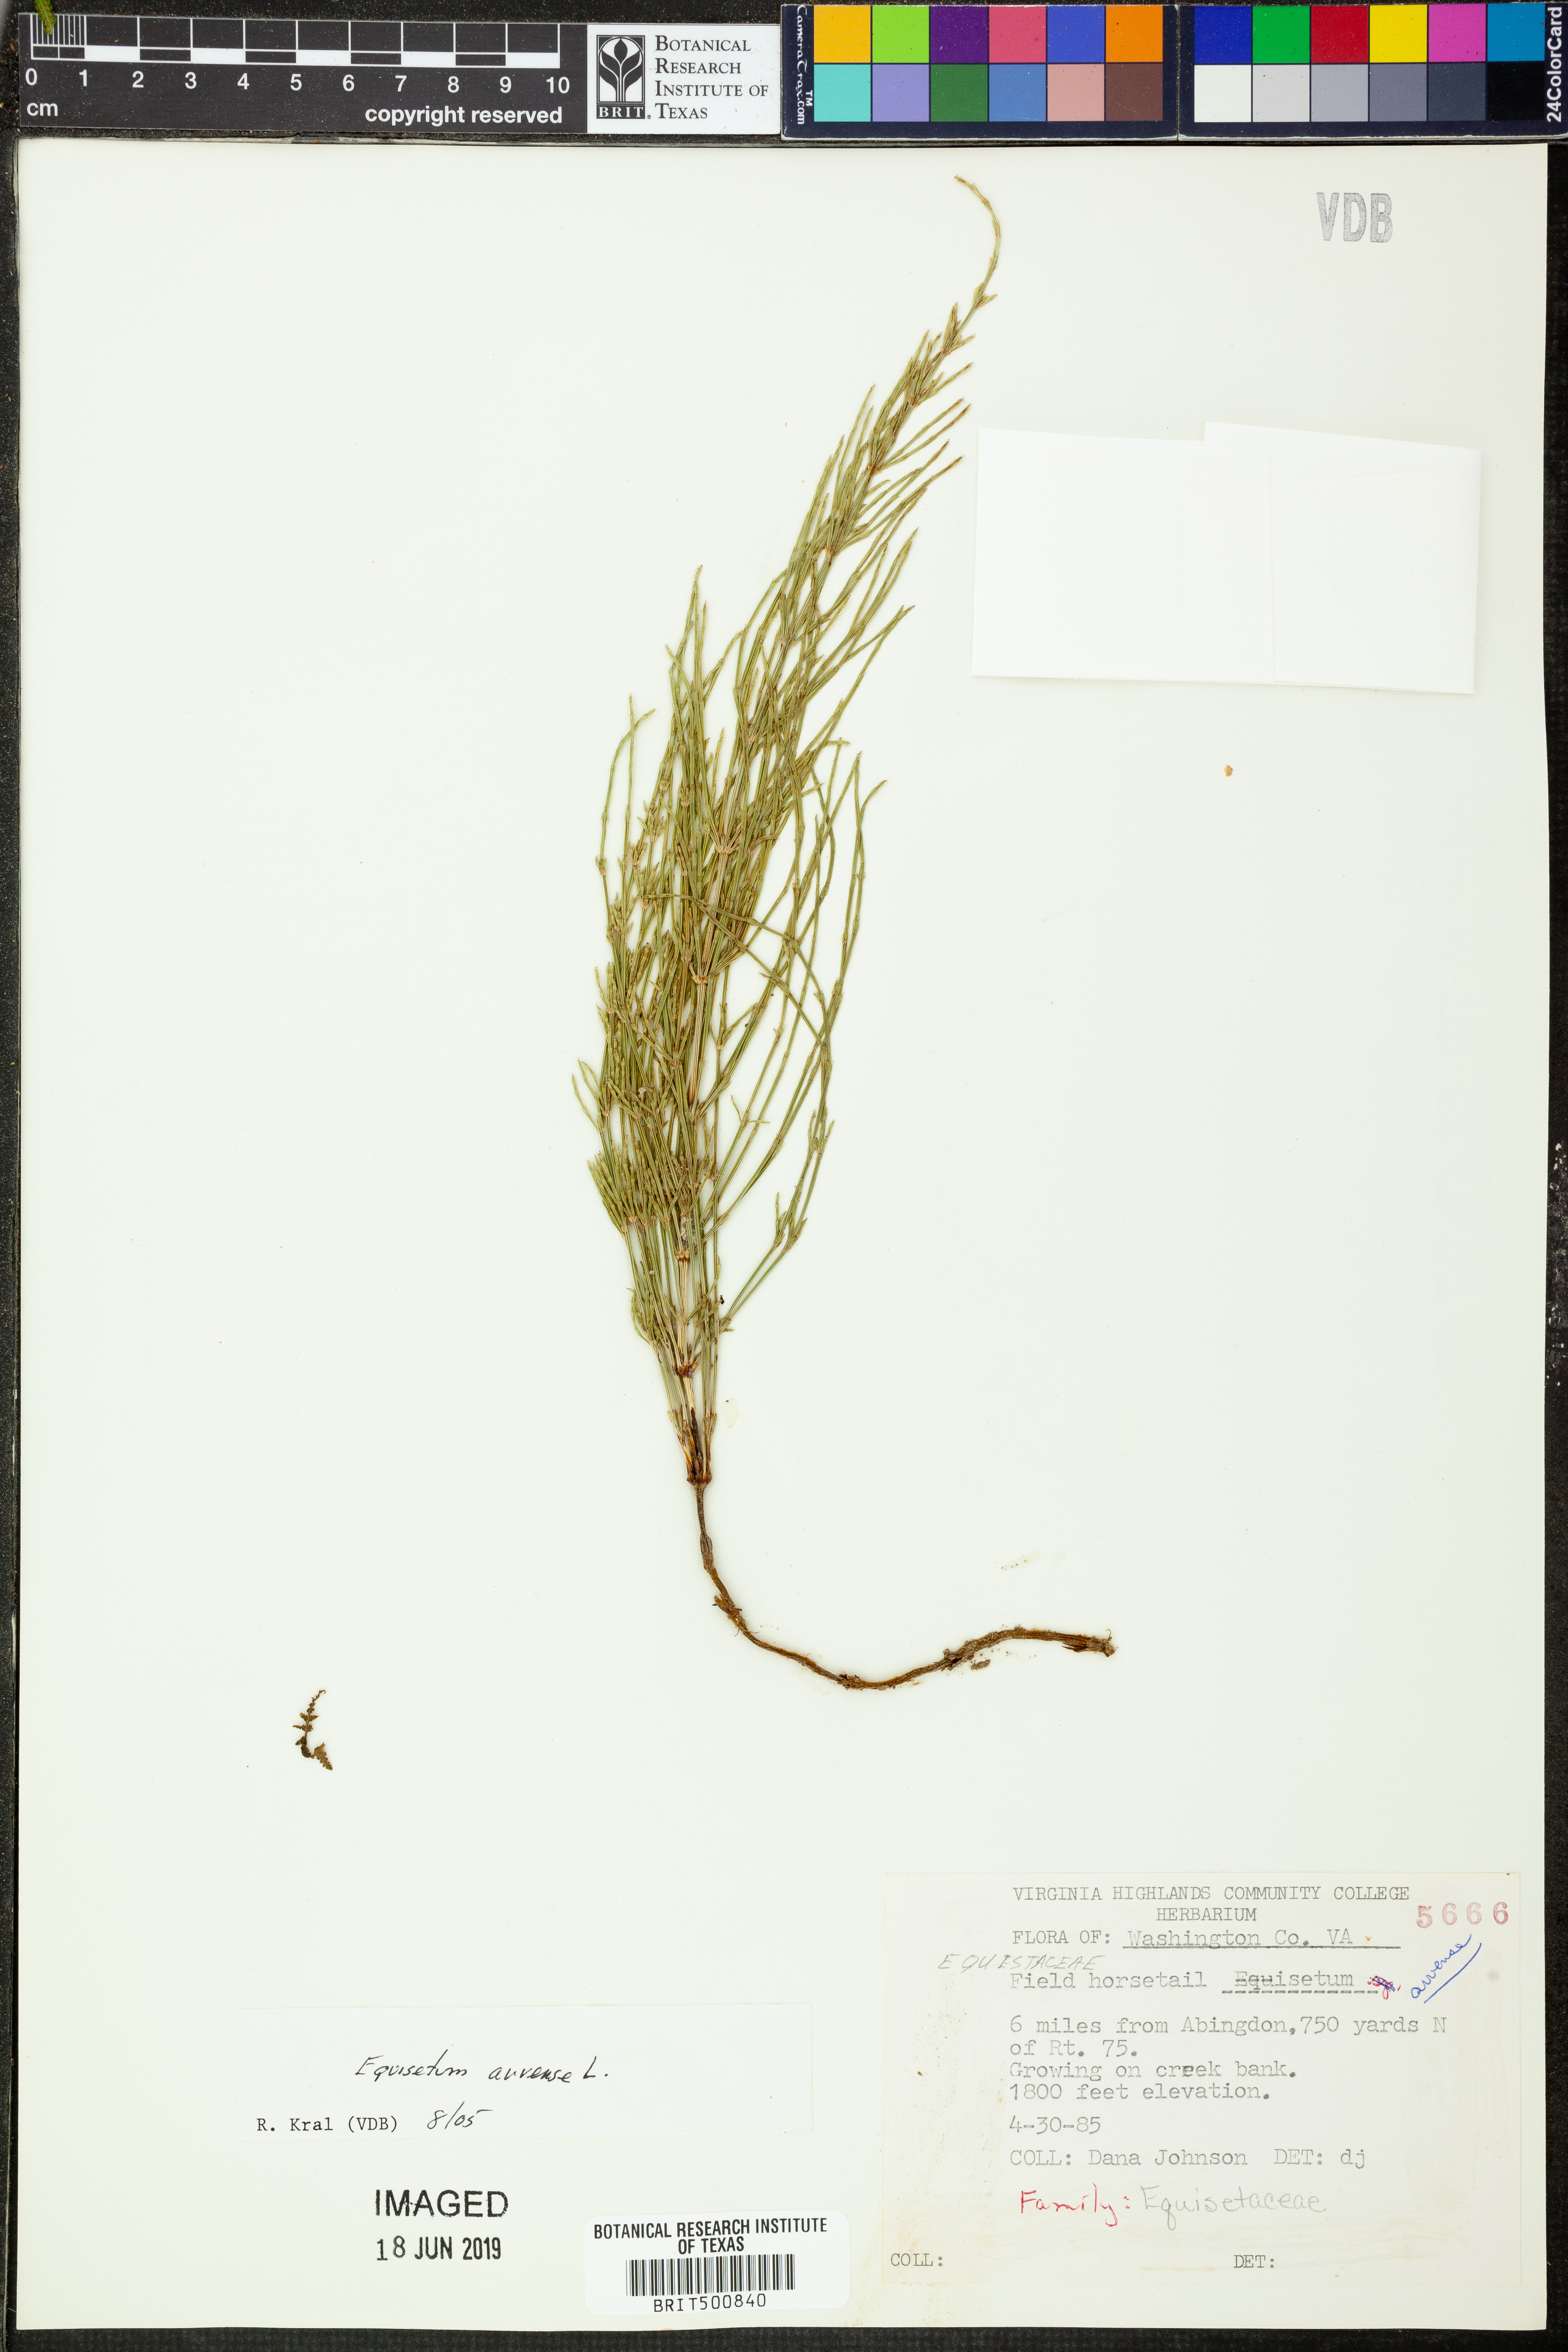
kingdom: Plantae
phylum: Tracheophyta
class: Polypodiopsida
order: Equisetales
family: Equisetaceae
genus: Equisetum
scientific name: Equisetum arvense
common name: Field horsetail
